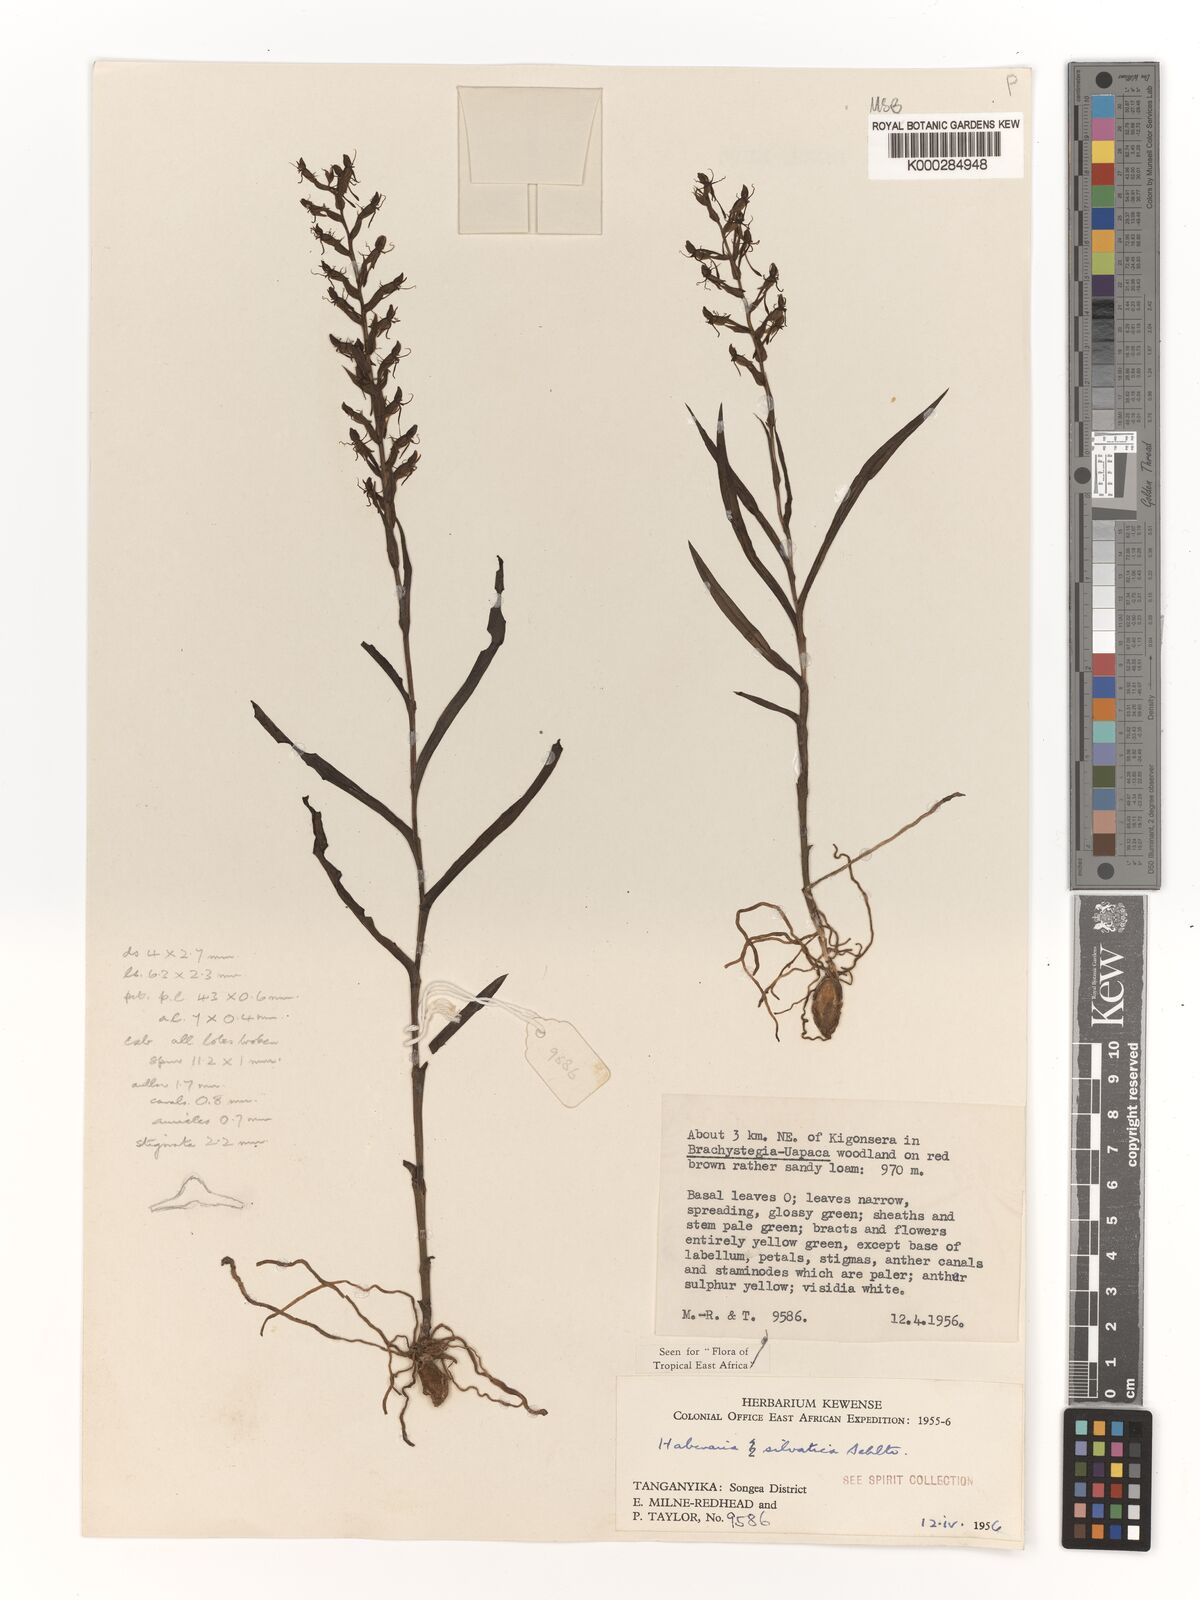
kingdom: Plantae
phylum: Tracheophyta
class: Liliopsida
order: Asparagales
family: Orchidaceae
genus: Habenaria
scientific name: Habenaria silvatica
